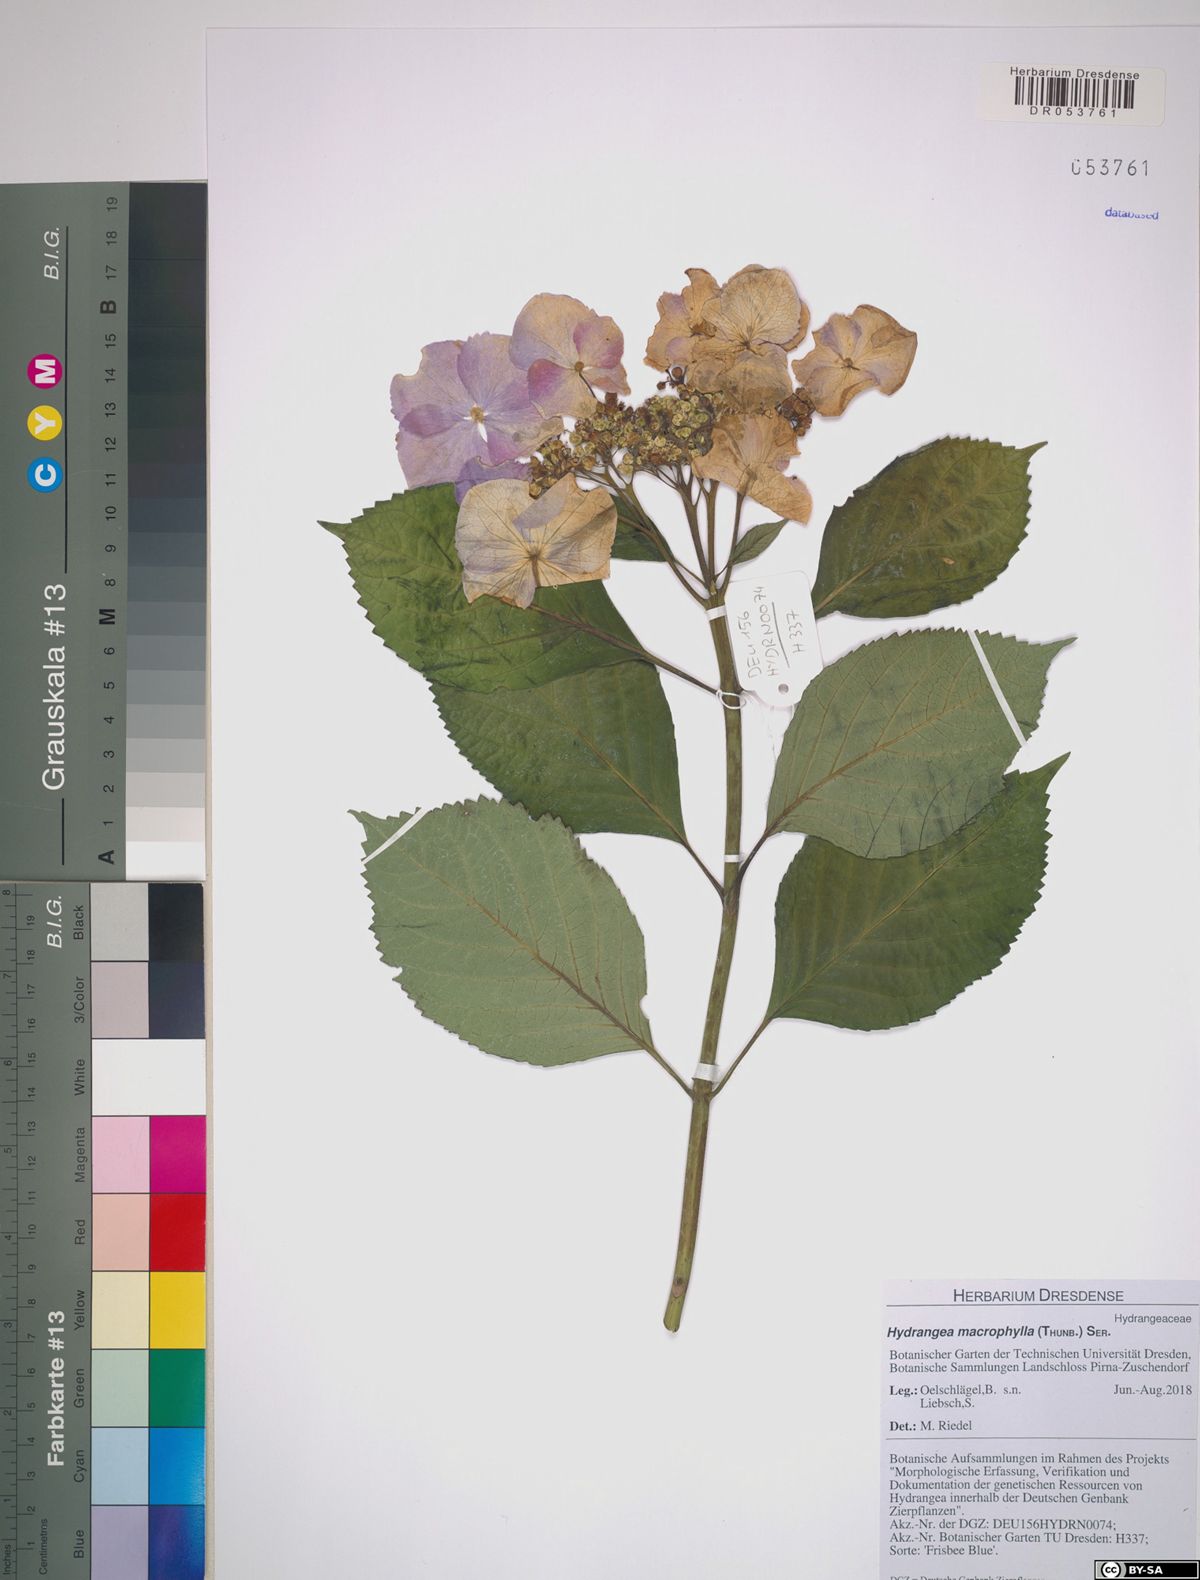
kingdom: Plantae
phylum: Tracheophyta
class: Magnoliopsida
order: Cornales
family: Hydrangeaceae
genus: Hydrangea
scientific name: Hydrangea macrophylla
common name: Hydrangea
